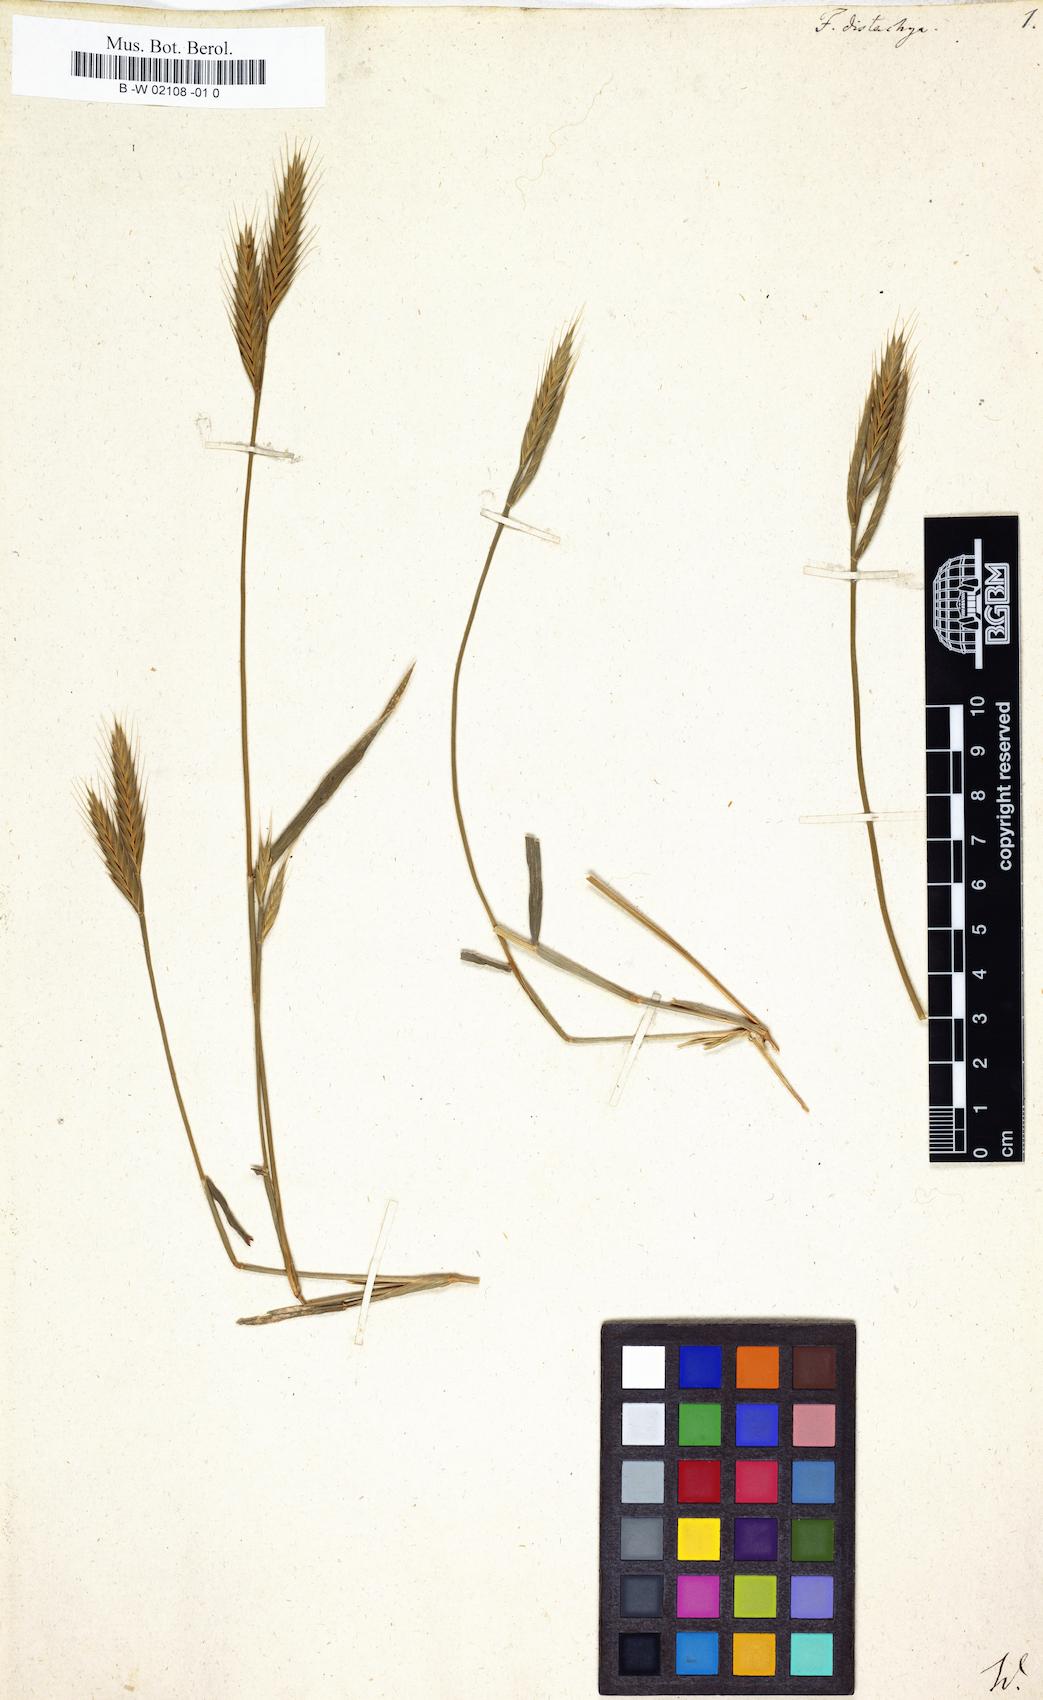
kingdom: Plantae
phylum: Tracheophyta
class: Liliopsida
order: Poales
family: Poaceae
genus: Brachypodium
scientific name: Brachypodium distachyon
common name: Stiff brome
